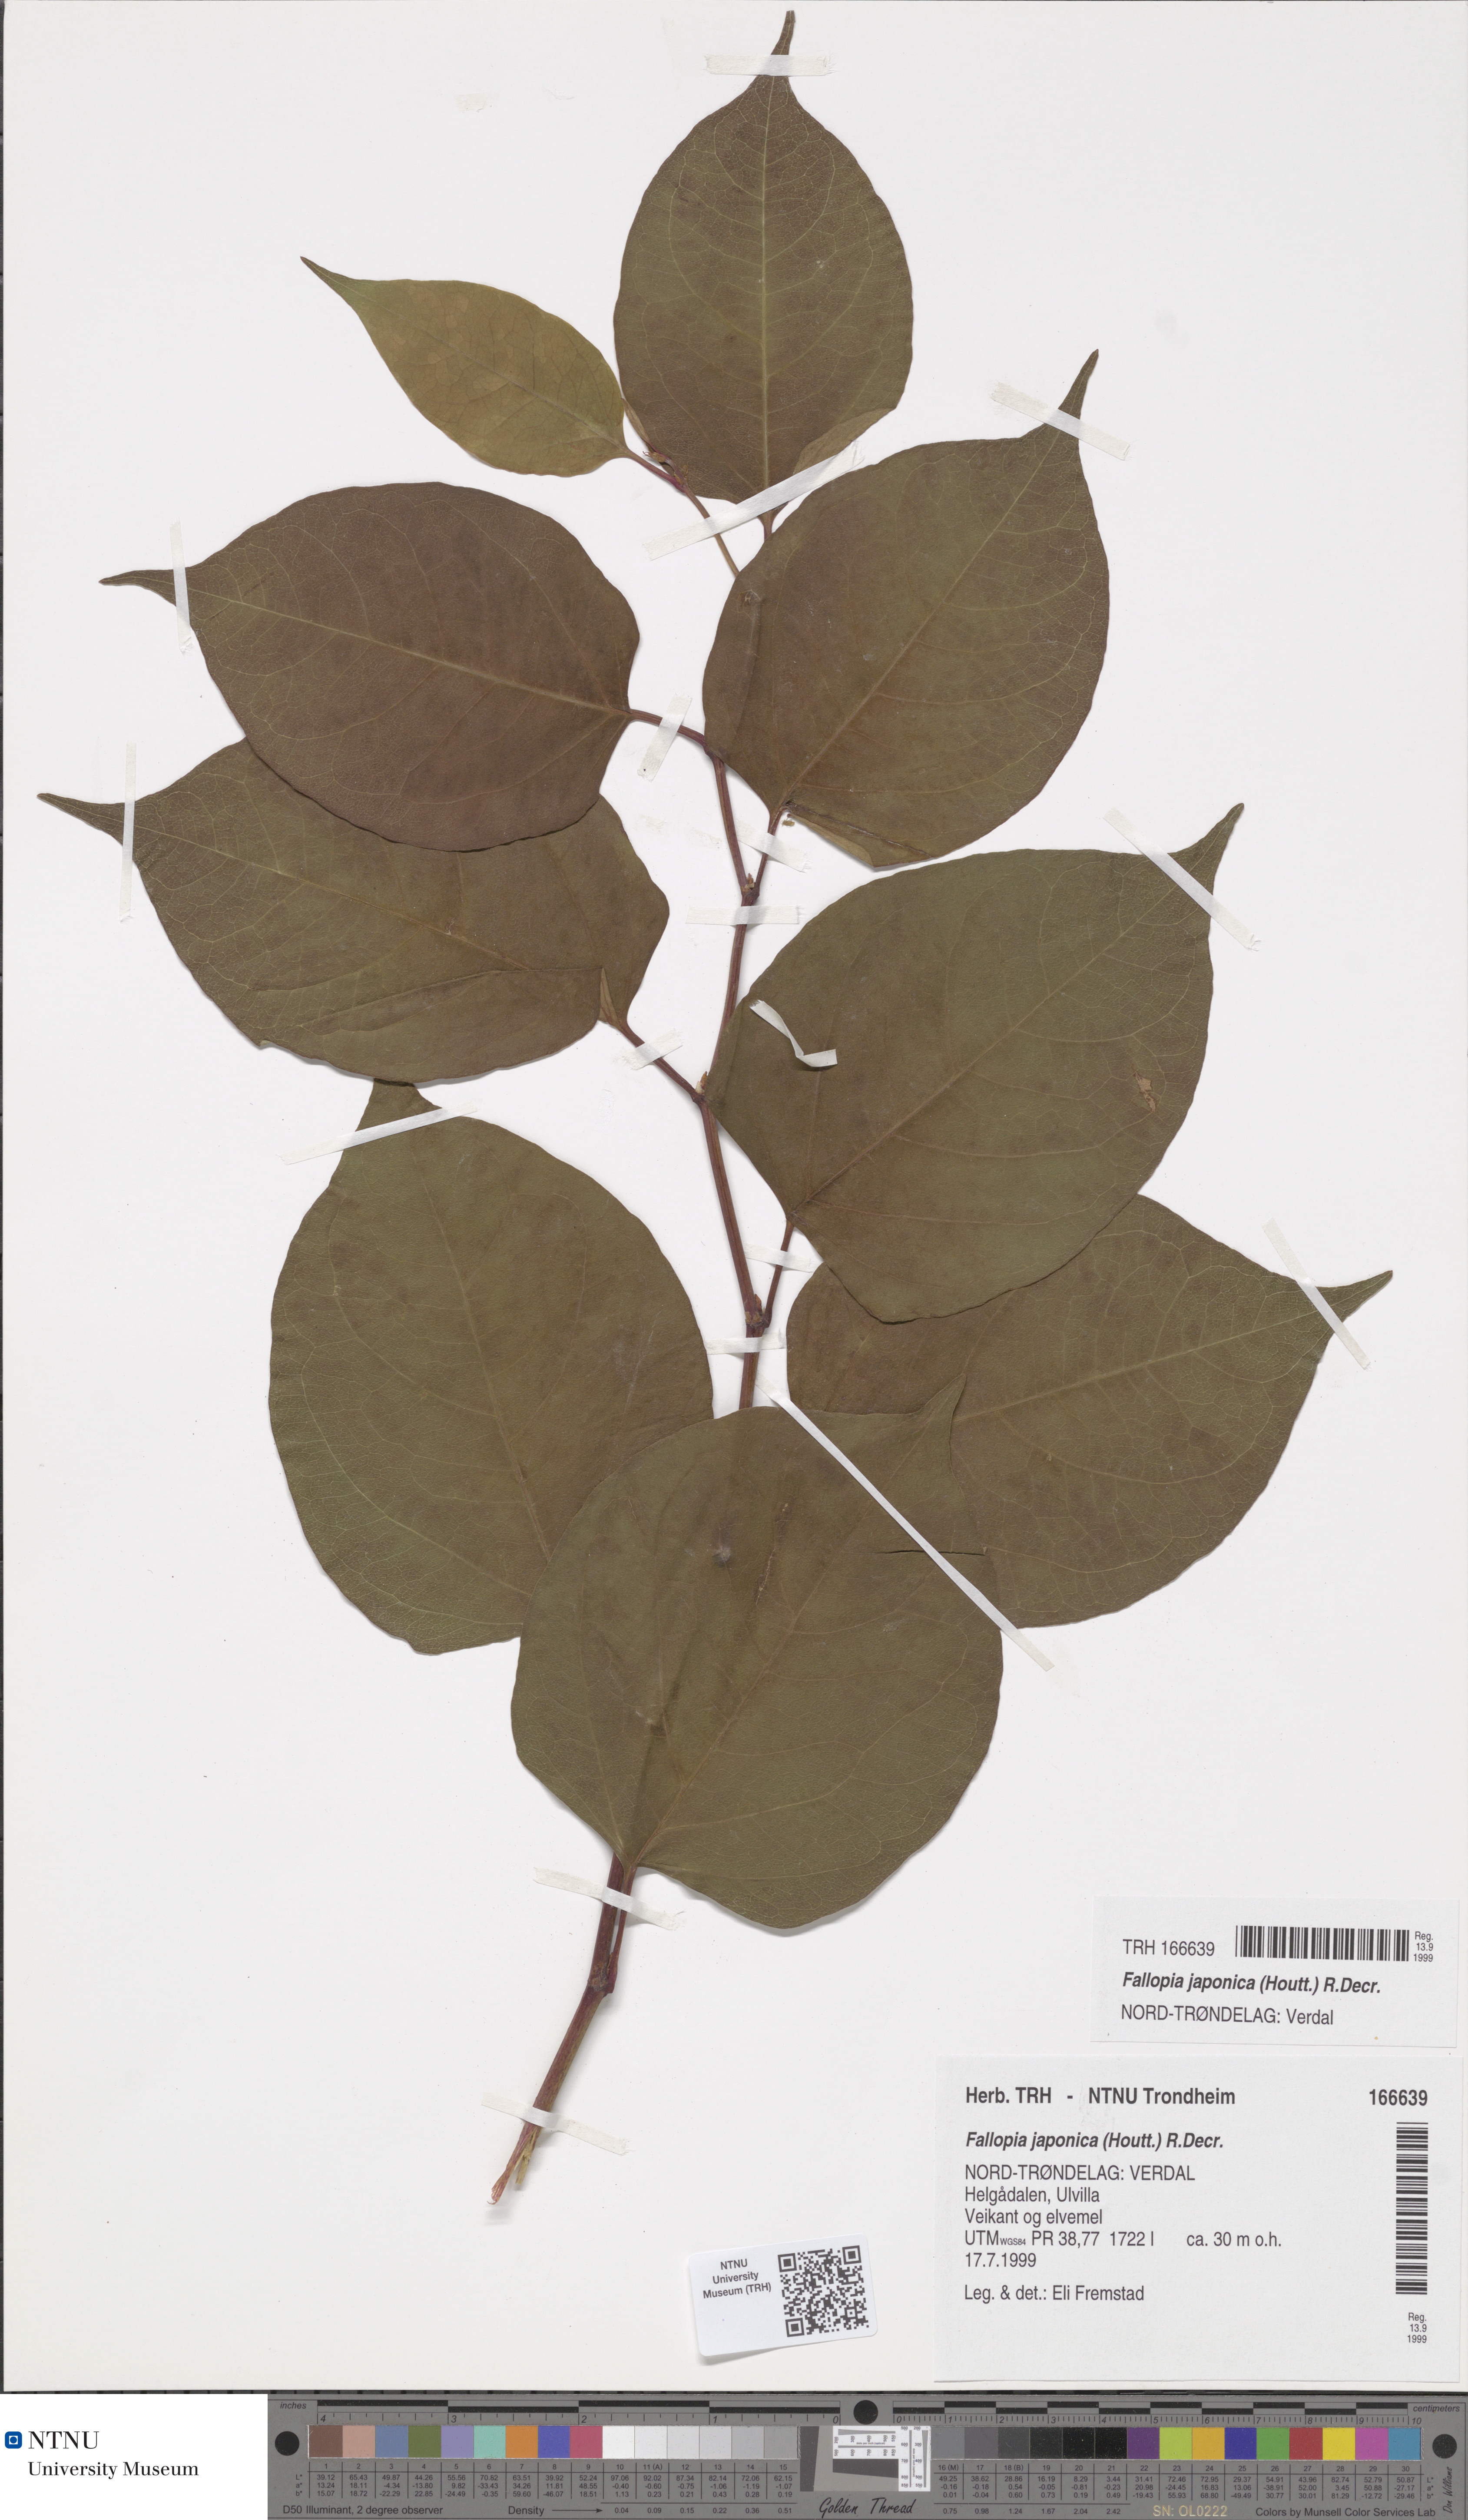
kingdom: Plantae
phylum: Tracheophyta
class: Magnoliopsida
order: Caryophyllales
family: Polygonaceae
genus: Reynoutria
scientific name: Reynoutria japonica
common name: Japanese knotweed
